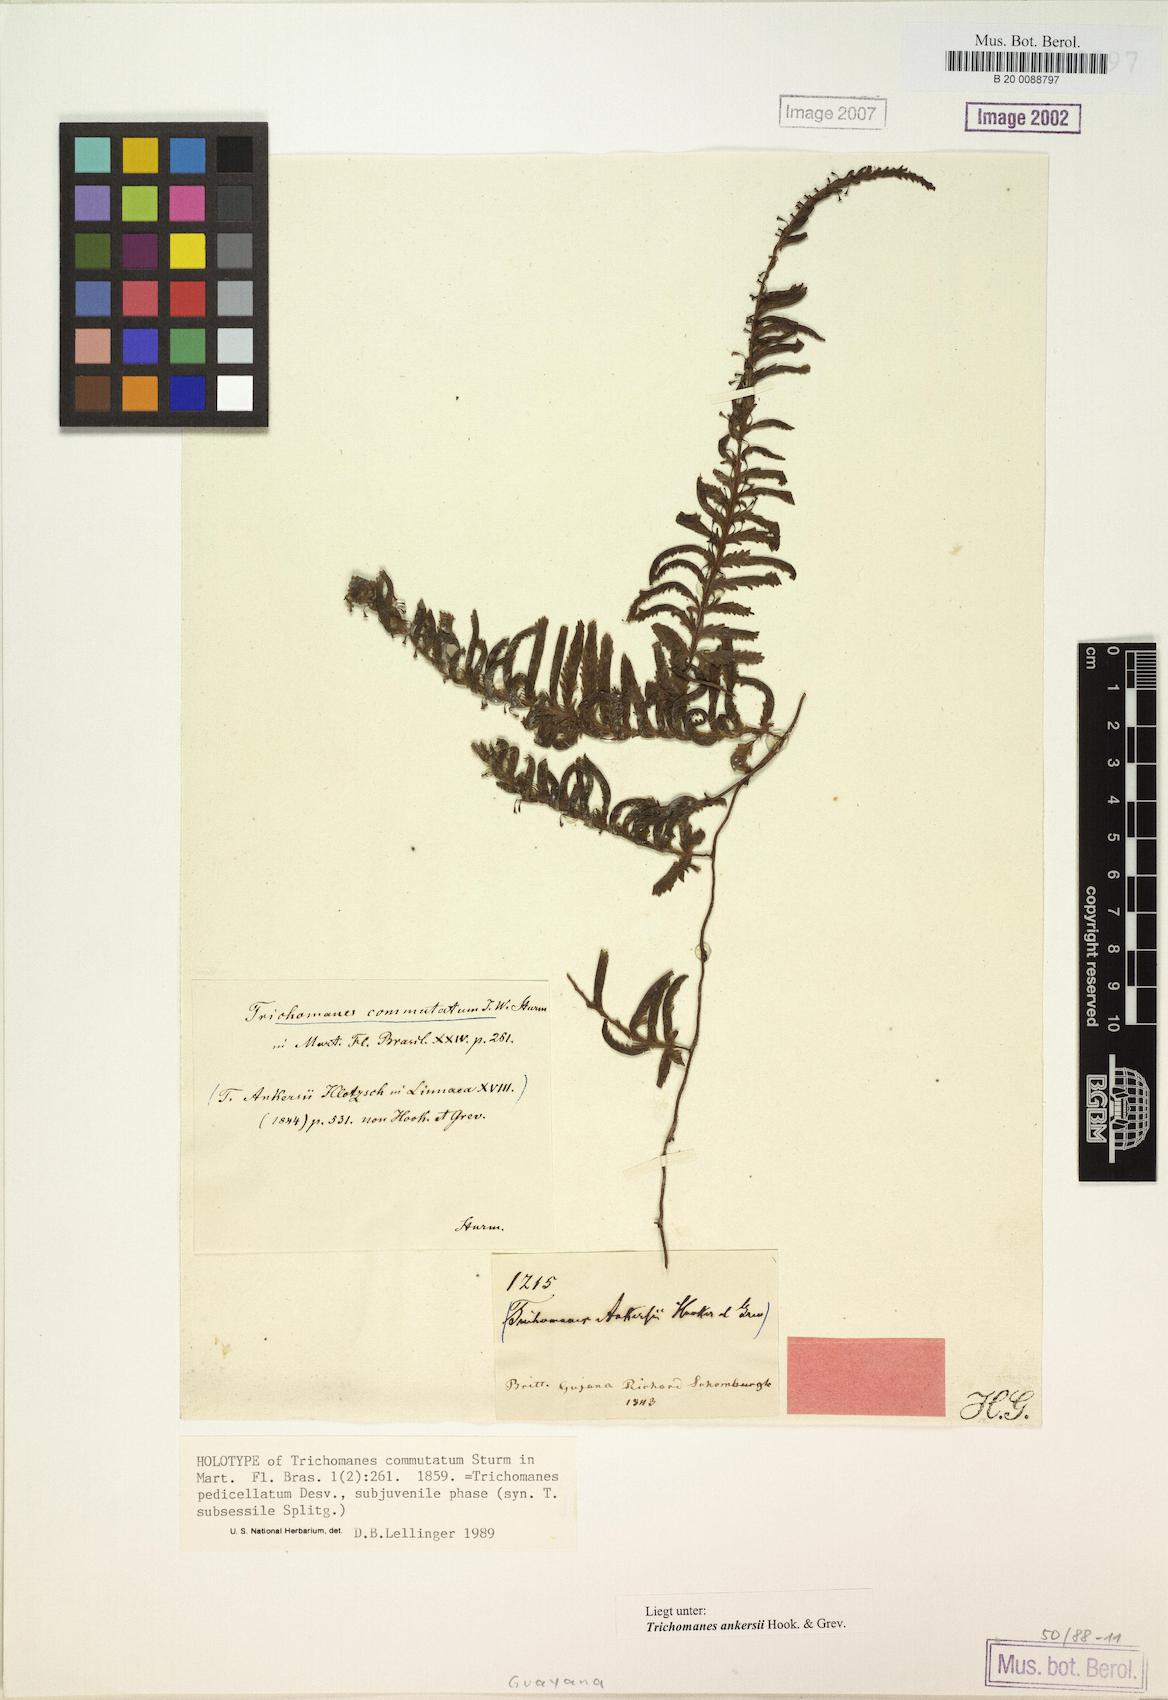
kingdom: Plantae
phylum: Tracheophyta
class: Polypodiopsida
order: Hymenophyllales
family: Hymenophyllaceae
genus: Trichomanes
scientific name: Trichomanes ankersii
